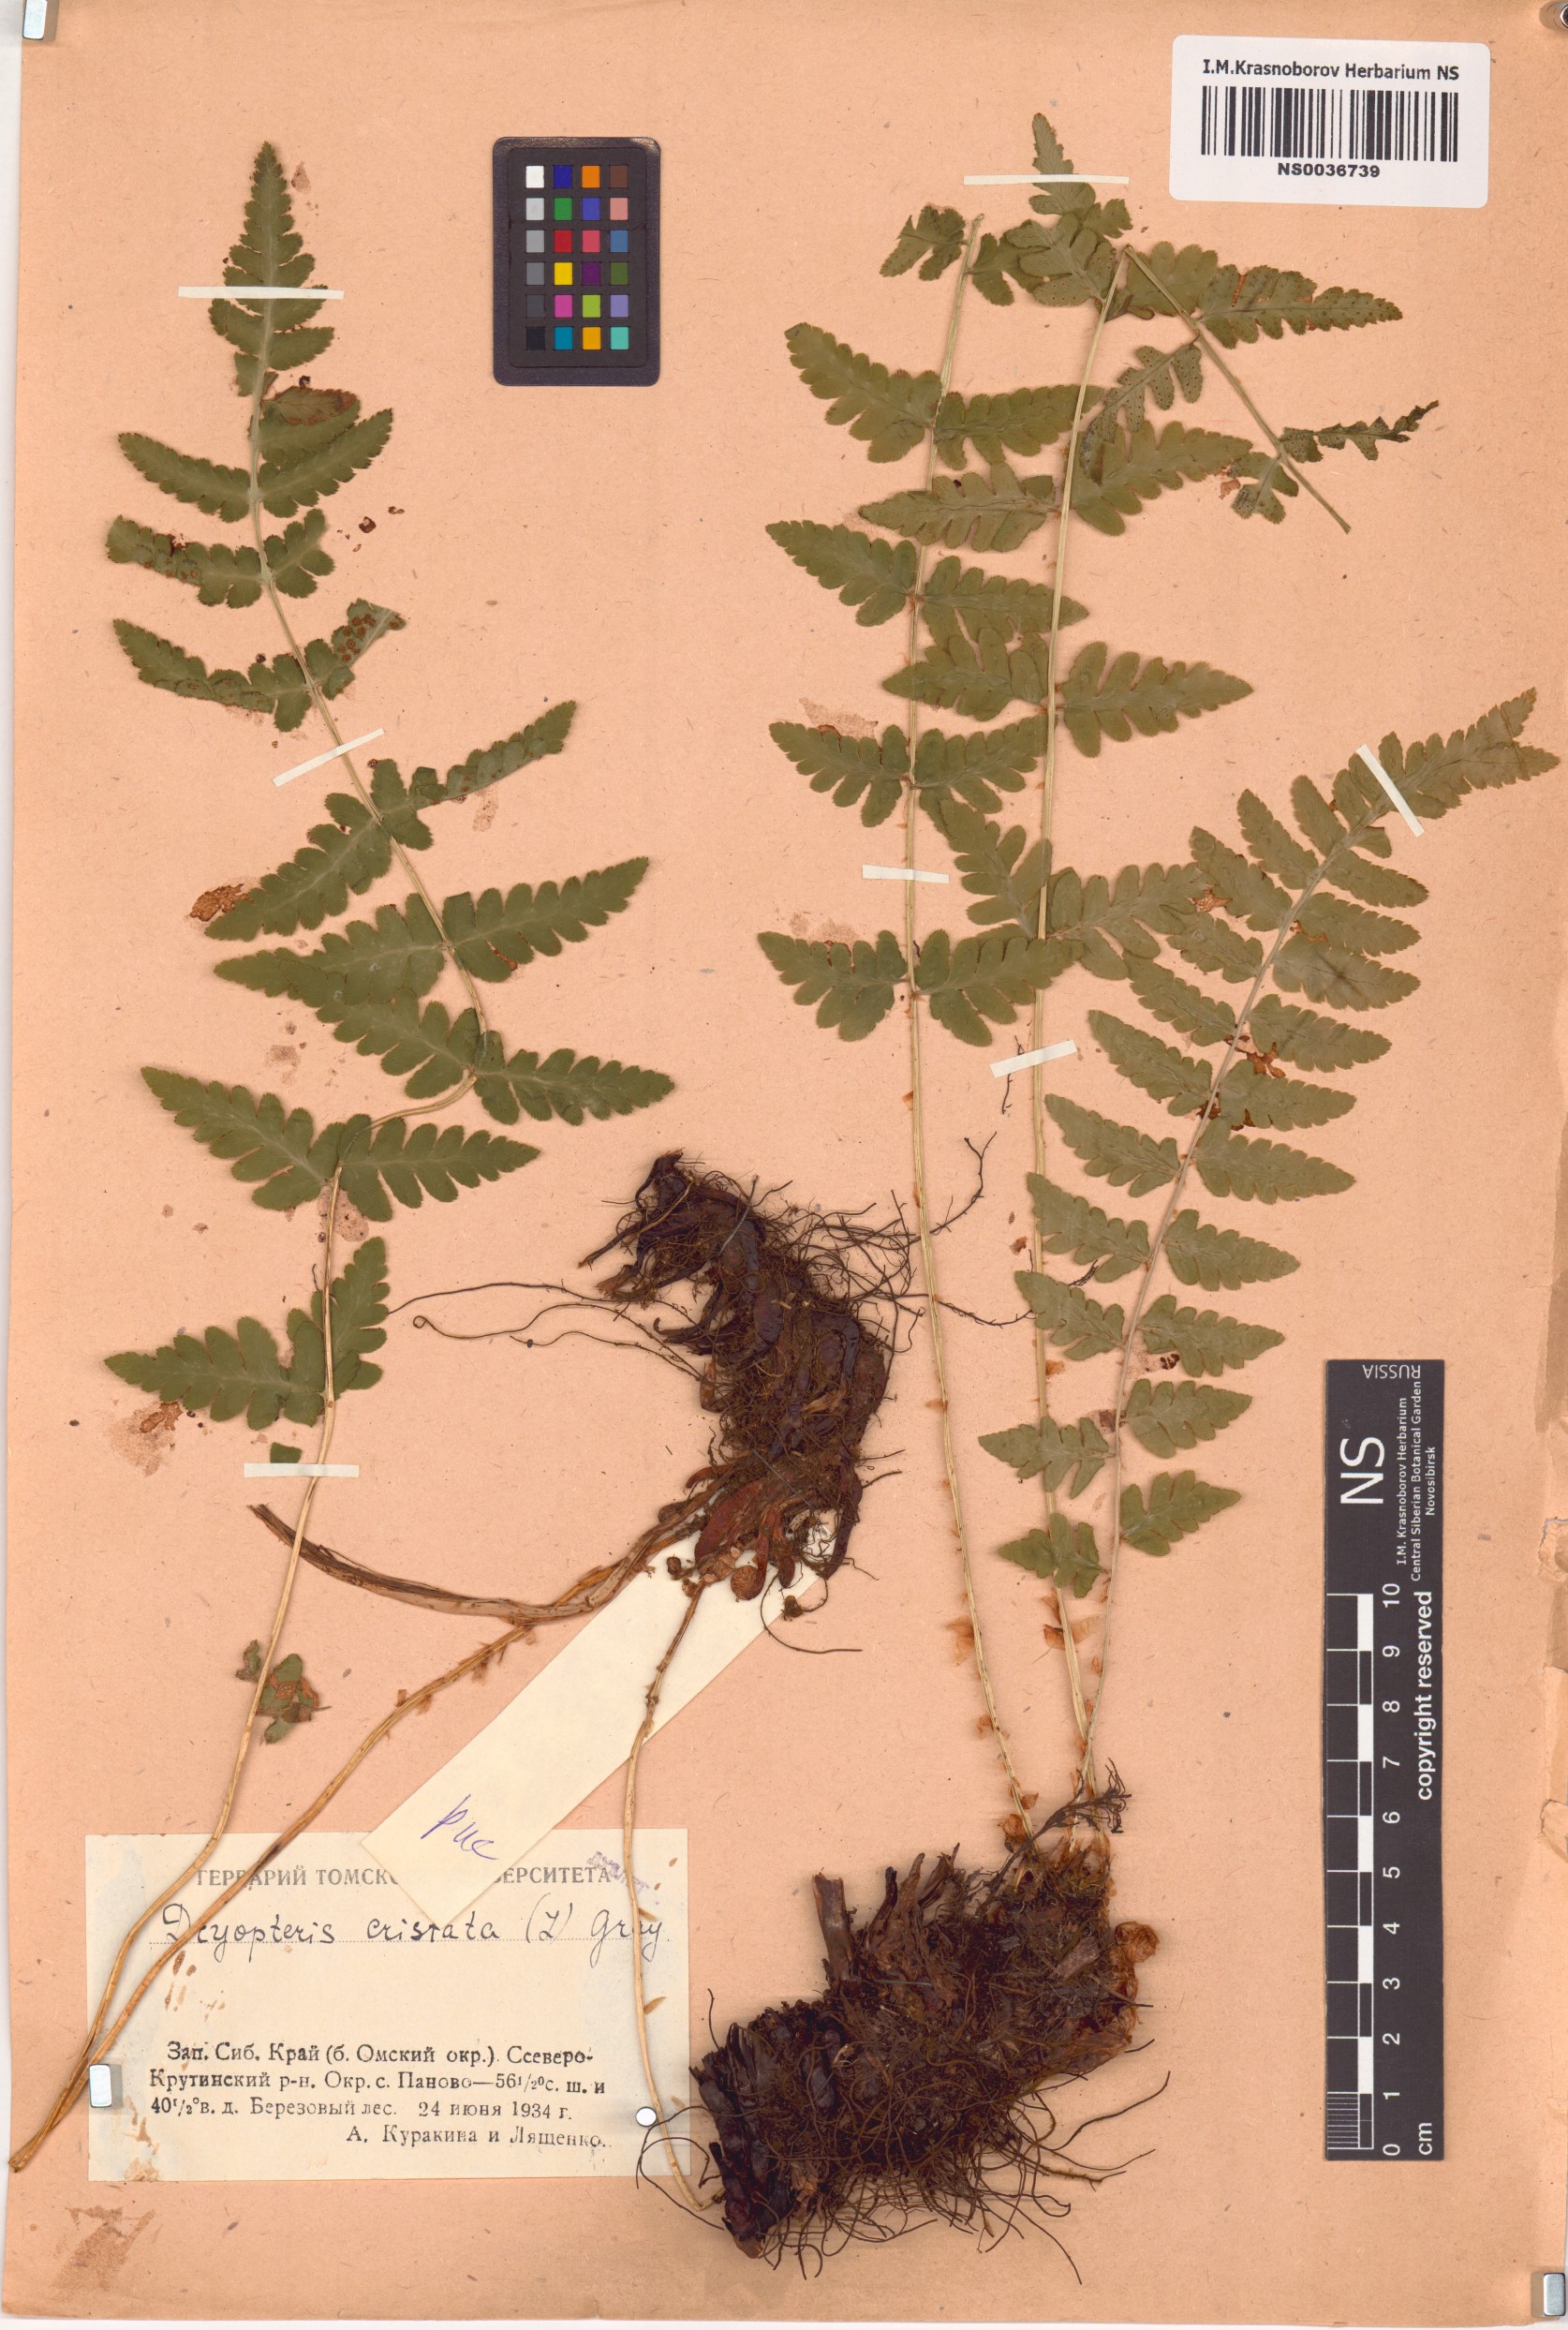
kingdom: Plantae
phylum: Tracheophyta
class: Polypodiopsida
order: Polypodiales
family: Dryopteridaceae
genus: Dryopteris
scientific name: Dryopteris cristata
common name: Crested wood fern
